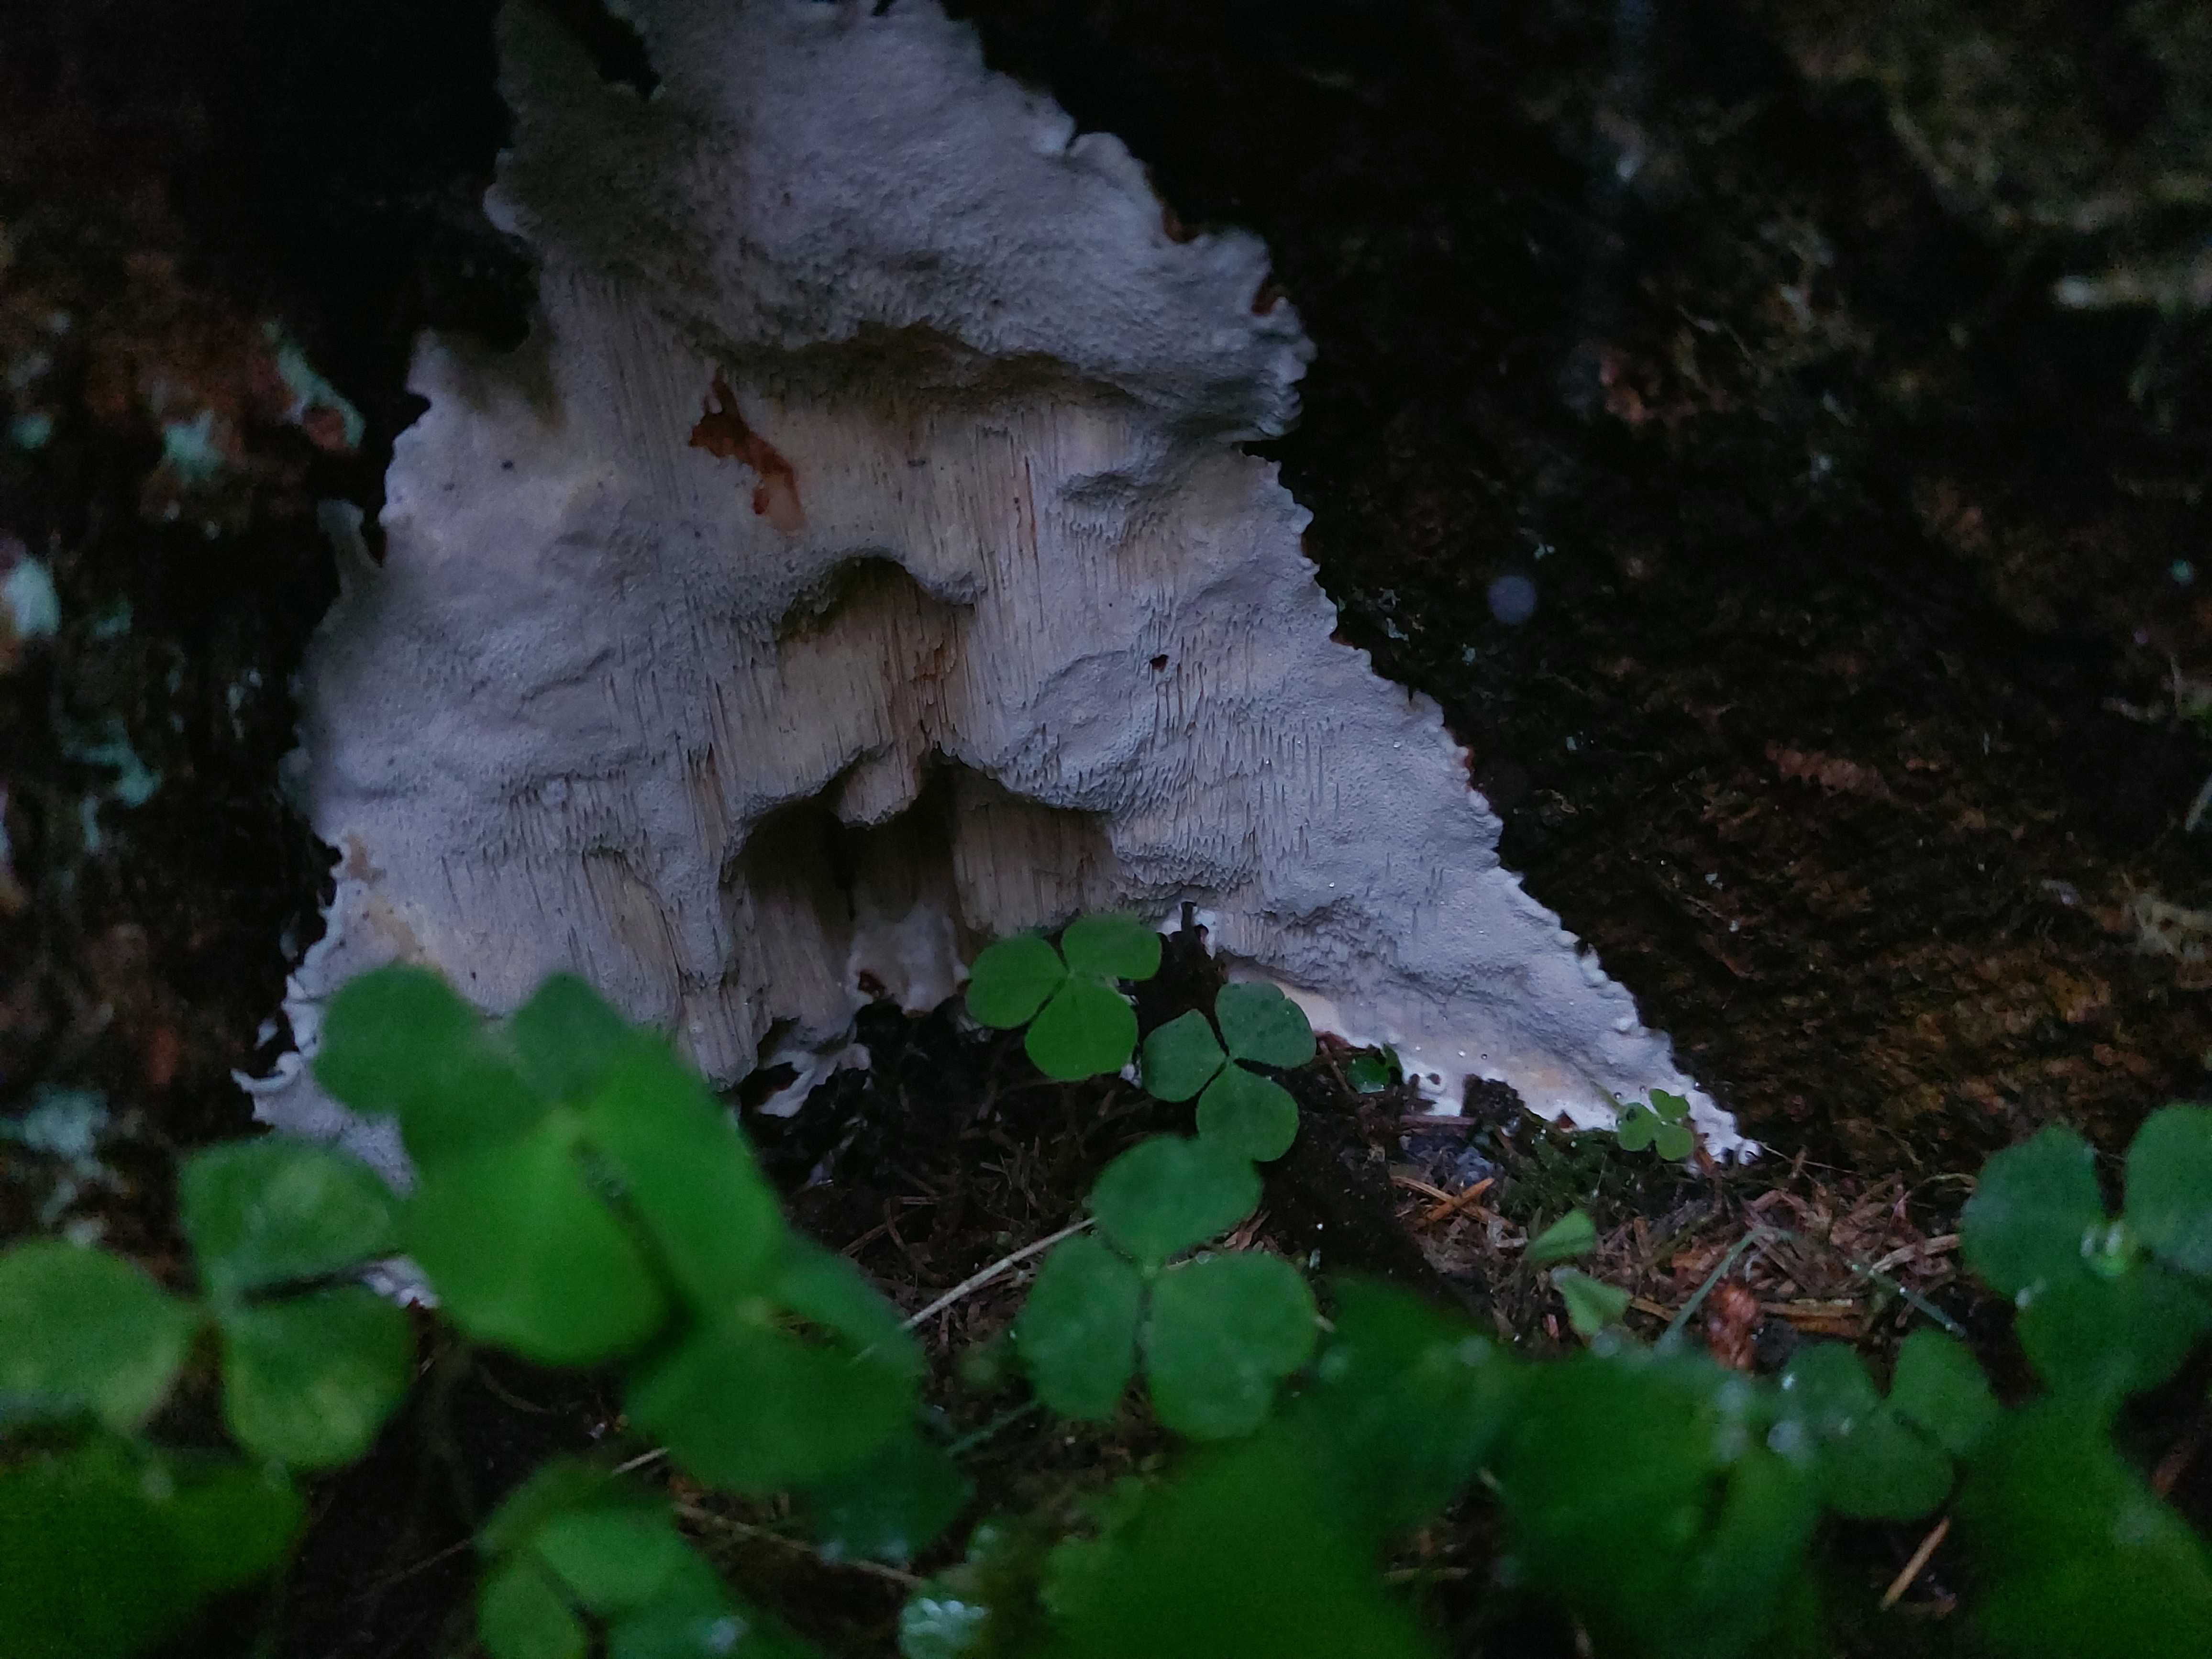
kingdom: Fungi
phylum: Basidiomycota
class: Agaricomycetes
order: Polyporales
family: Polyporaceae
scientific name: Polyporaceae
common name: poresvampfamilien
